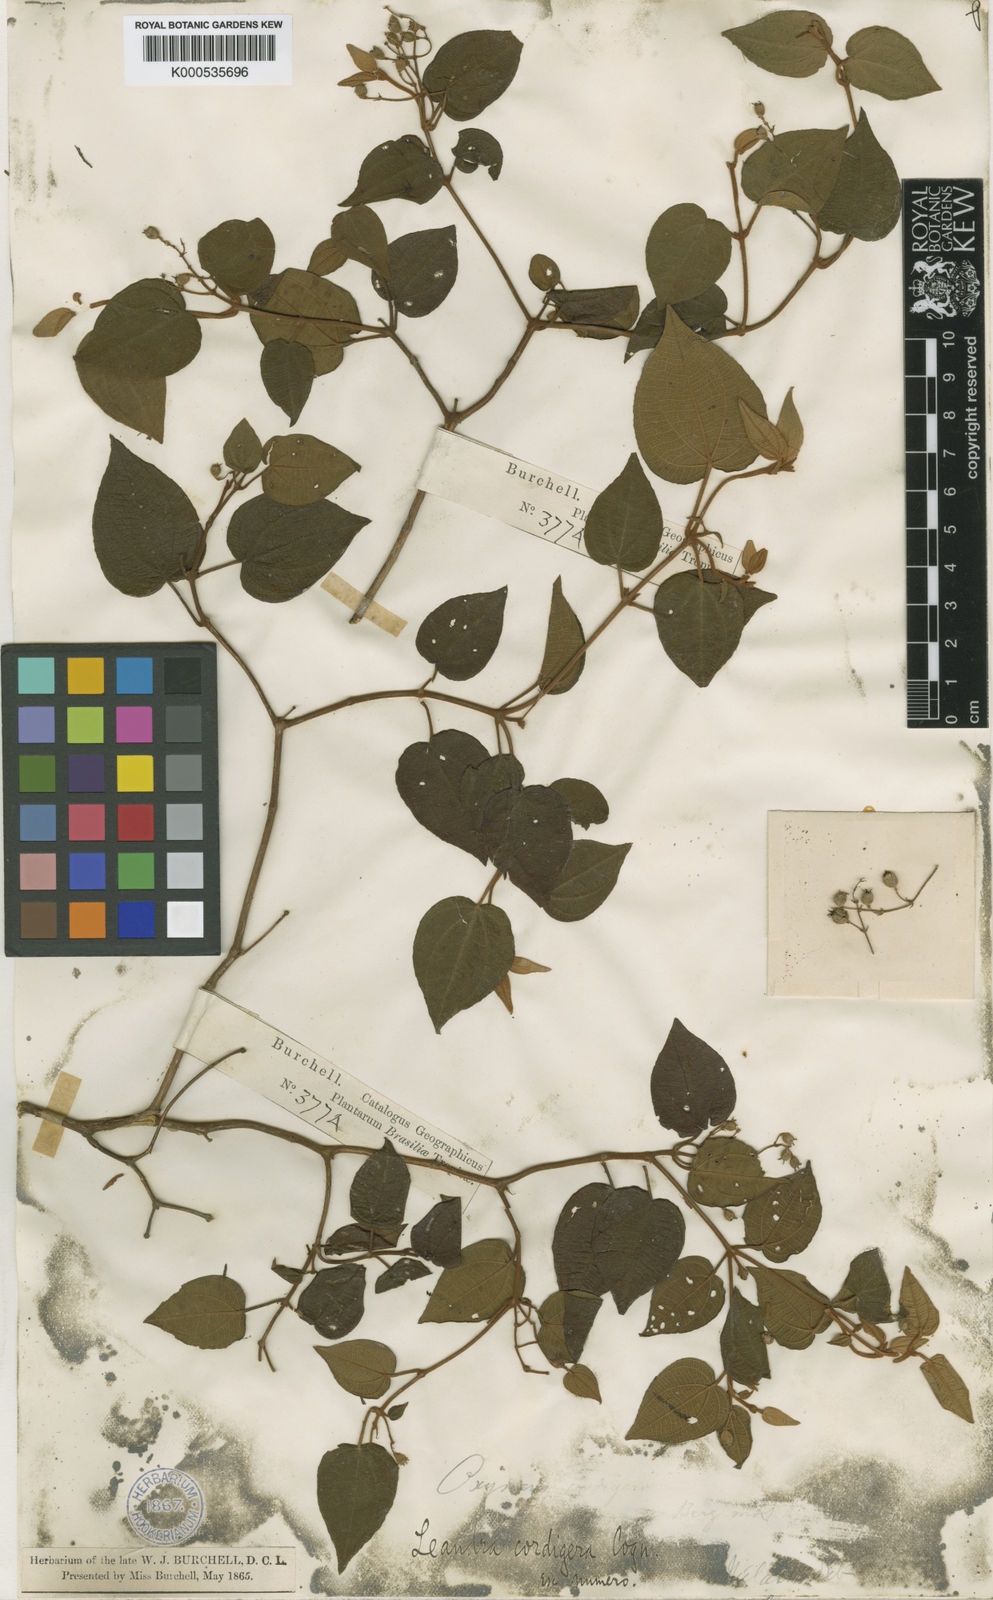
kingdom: Plantae
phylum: Tracheophyta
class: Magnoliopsida
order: Myrtales
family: Melastomataceae
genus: Miconia
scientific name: Miconia cordigera
